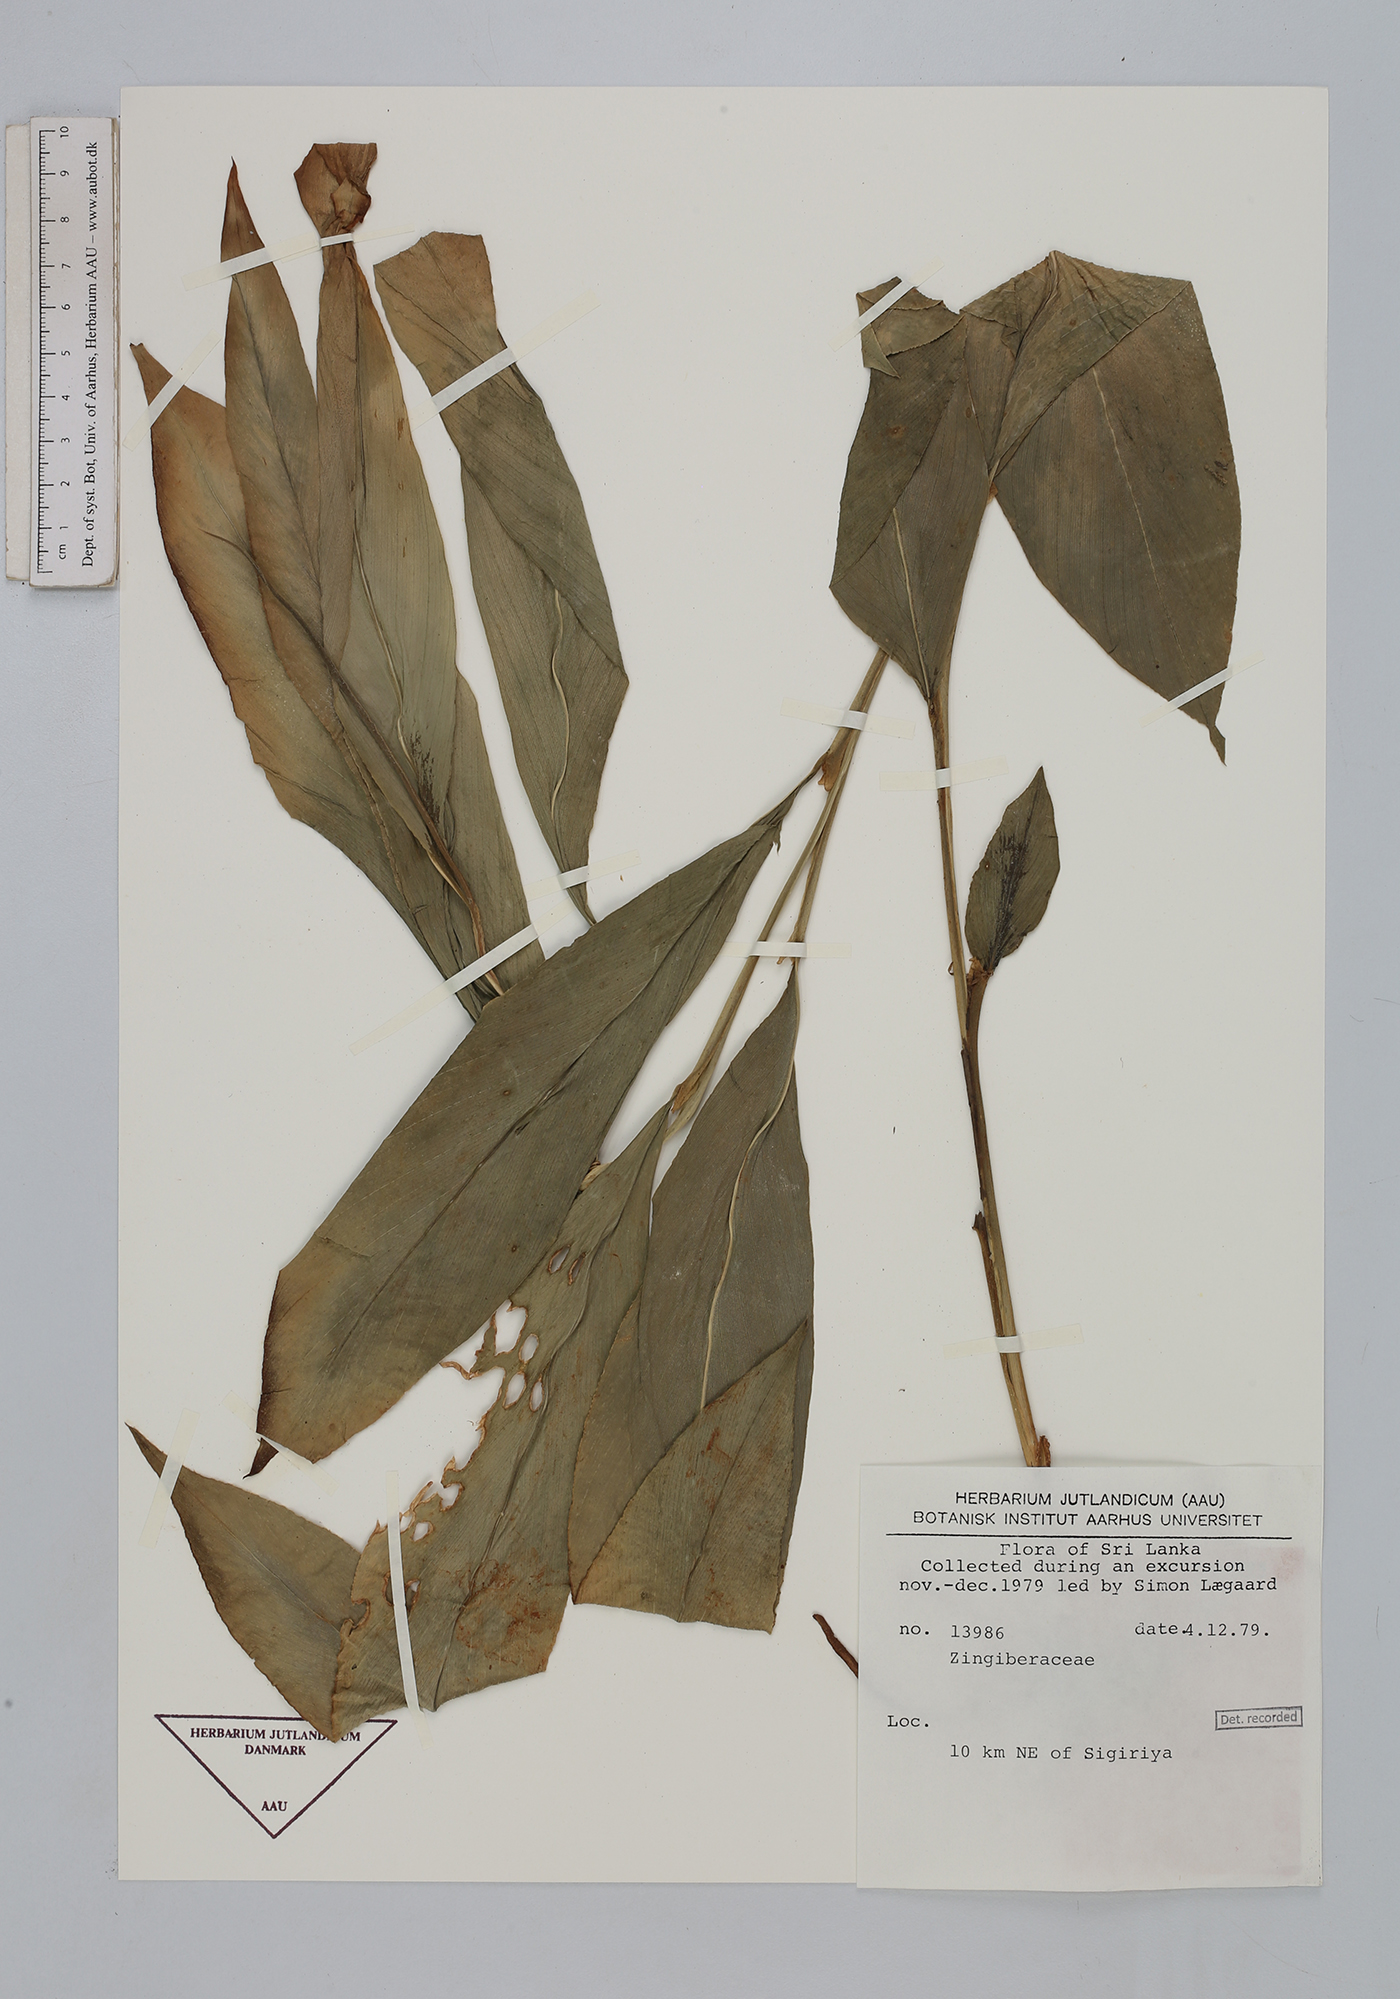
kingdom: Plantae
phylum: Tracheophyta
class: Liliopsida
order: Zingiberales
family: Zingiberaceae
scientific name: Zingiberaceae
